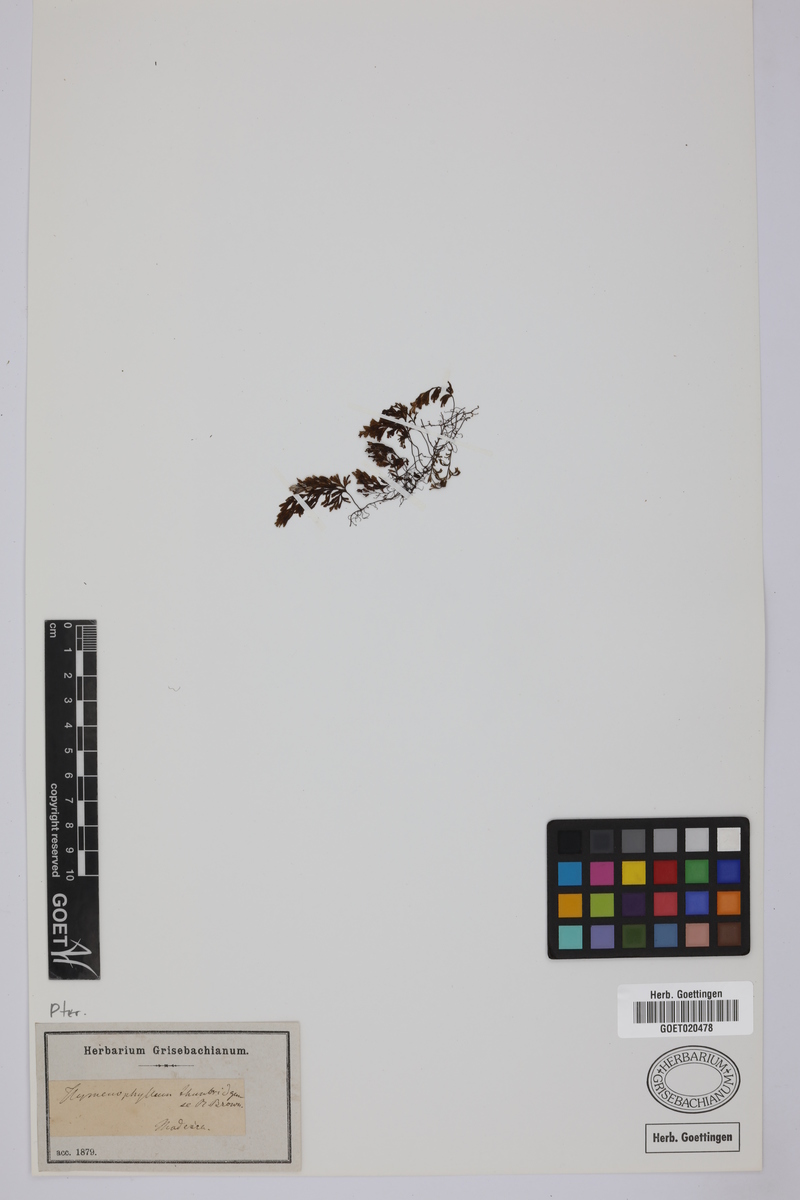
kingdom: Plantae
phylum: Tracheophyta
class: Polypodiopsida
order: Hymenophyllales
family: Hymenophyllaceae
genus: Hymenophyllum
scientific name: Hymenophyllum tunbrigense
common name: Tunbridge filmy fern
